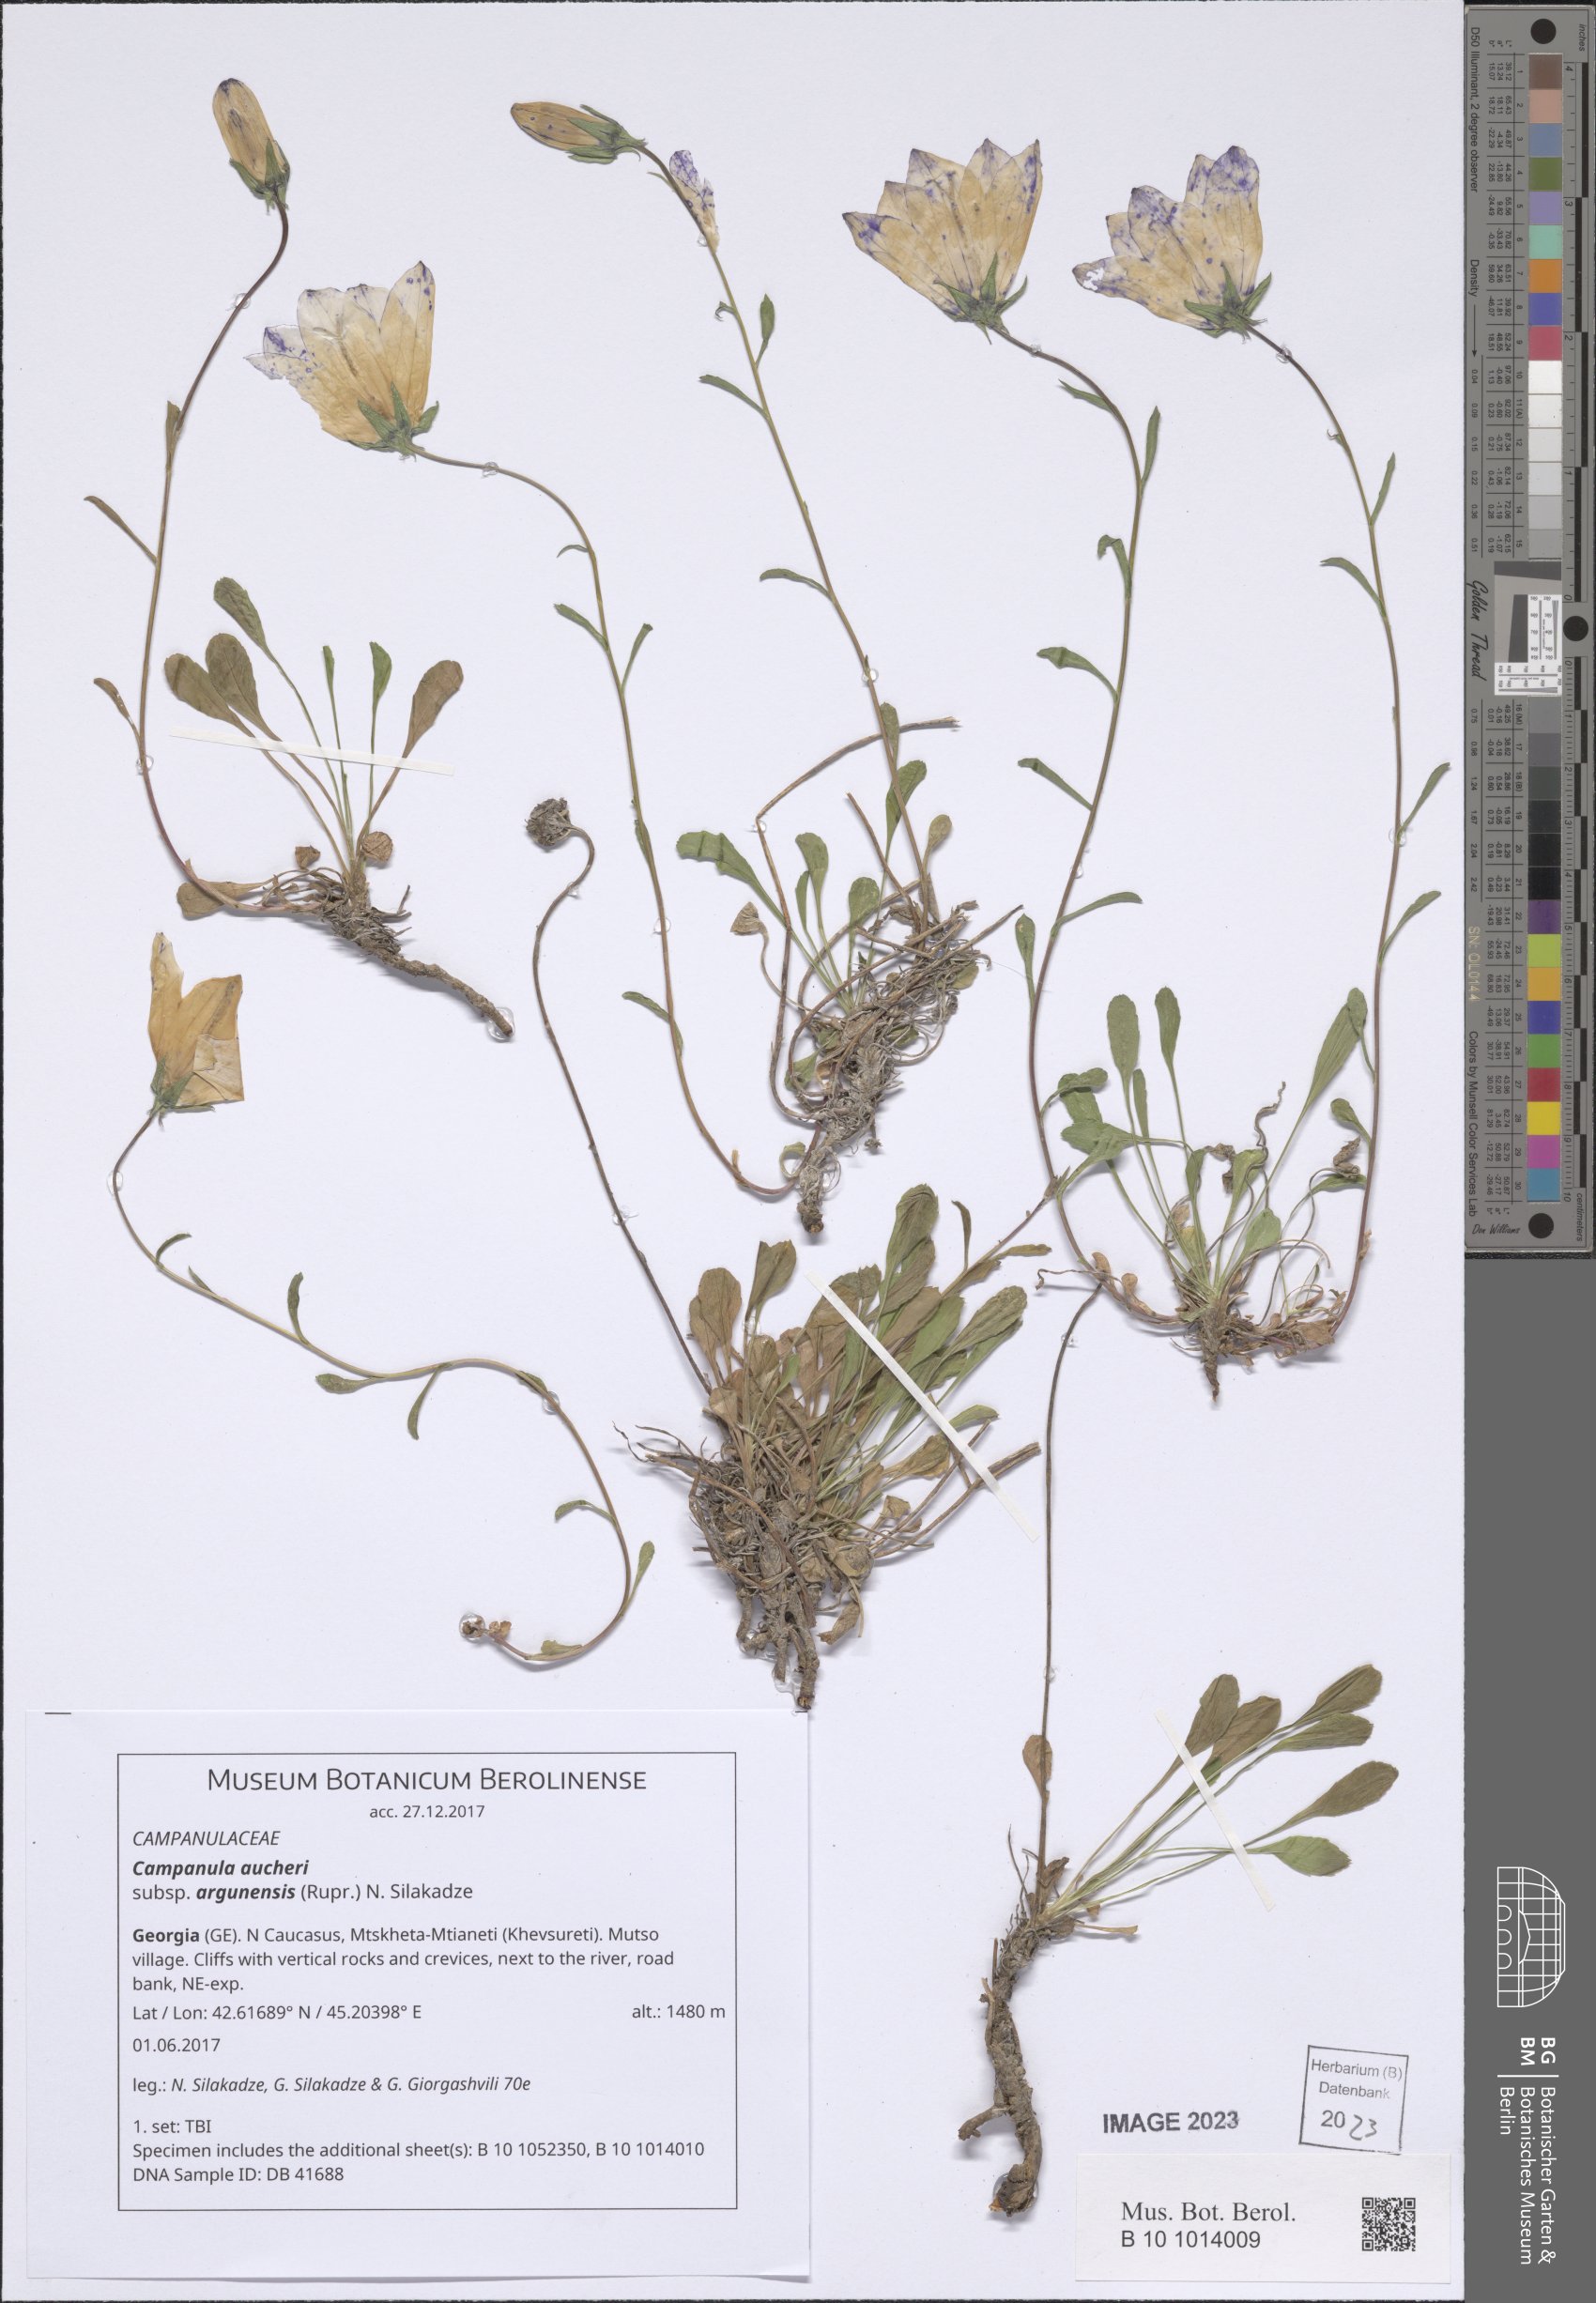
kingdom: Plantae
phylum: Tracheophyta
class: Magnoliopsida
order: Asterales
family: Campanulaceae
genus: Campanula
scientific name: Campanula saxifraga
